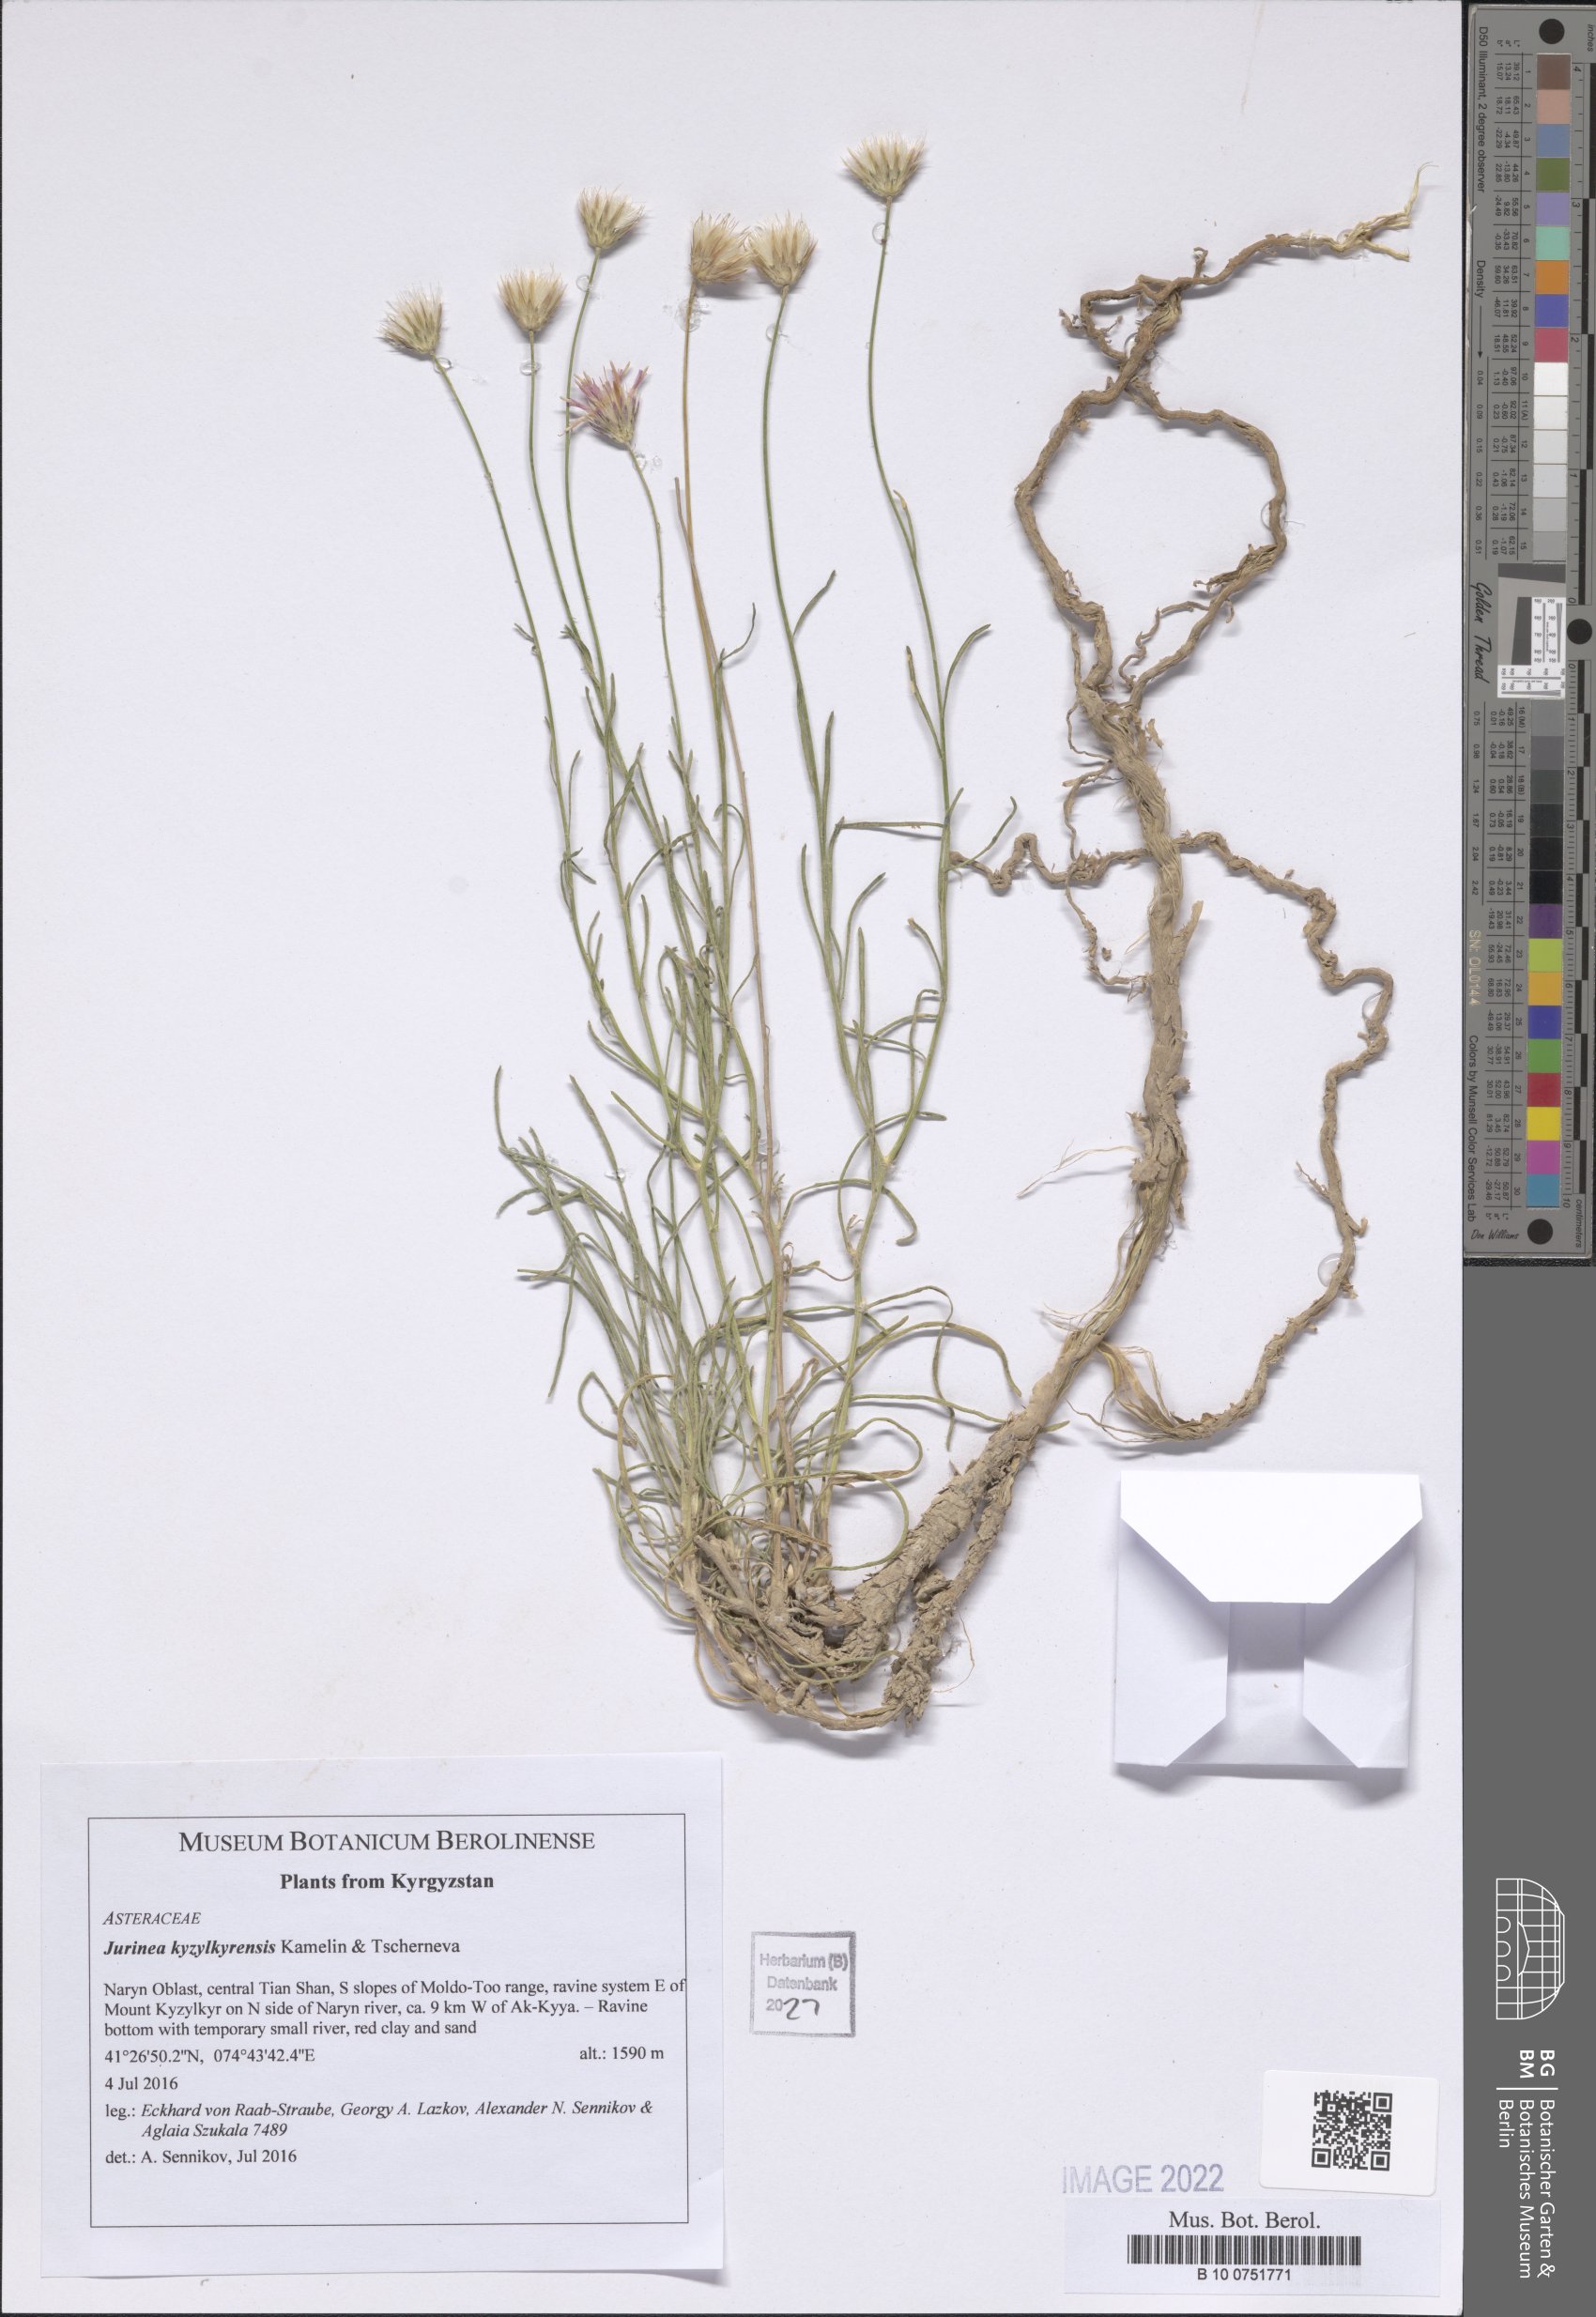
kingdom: Plantae
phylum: Tracheophyta
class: Magnoliopsida
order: Asterales
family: Asteraceae
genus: Jurinea
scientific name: Jurinea kyzylkyrensis
